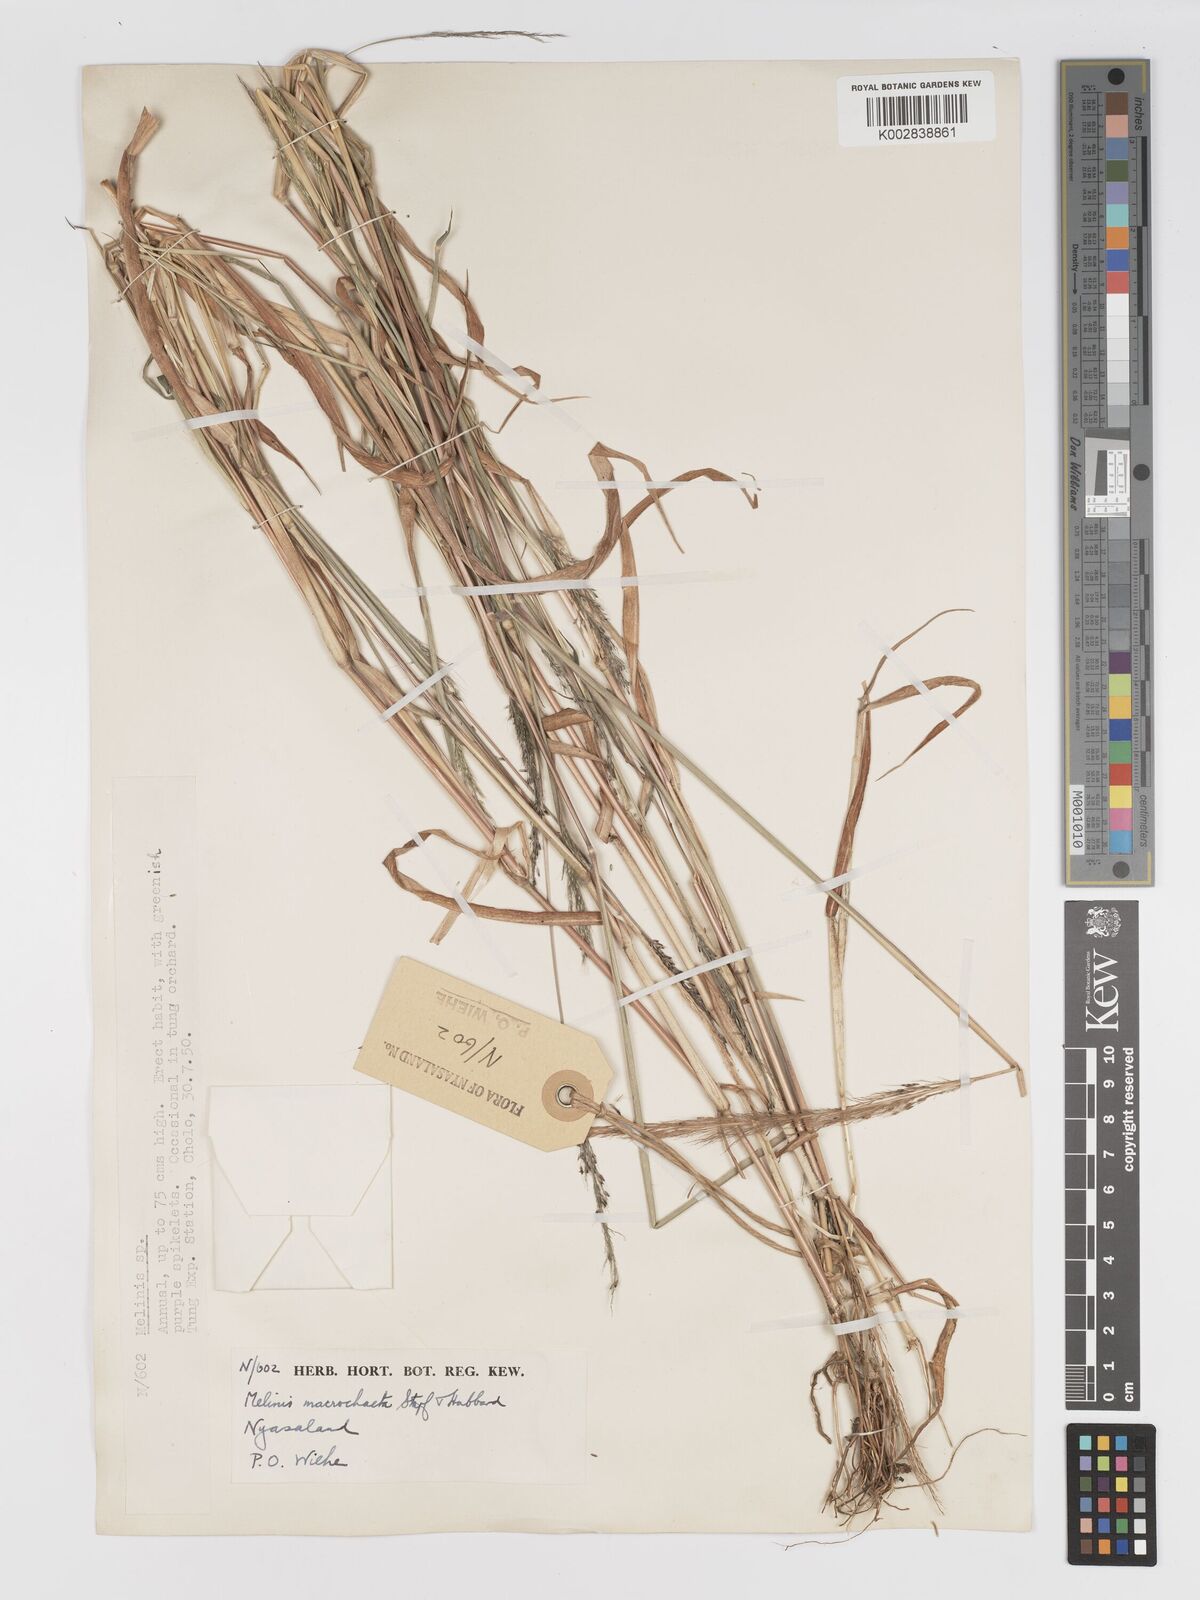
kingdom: Plantae
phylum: Tracheophyta
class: Liliopsida
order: Poales
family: Poaceae
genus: Melinis
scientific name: Melinis macrochaeta
